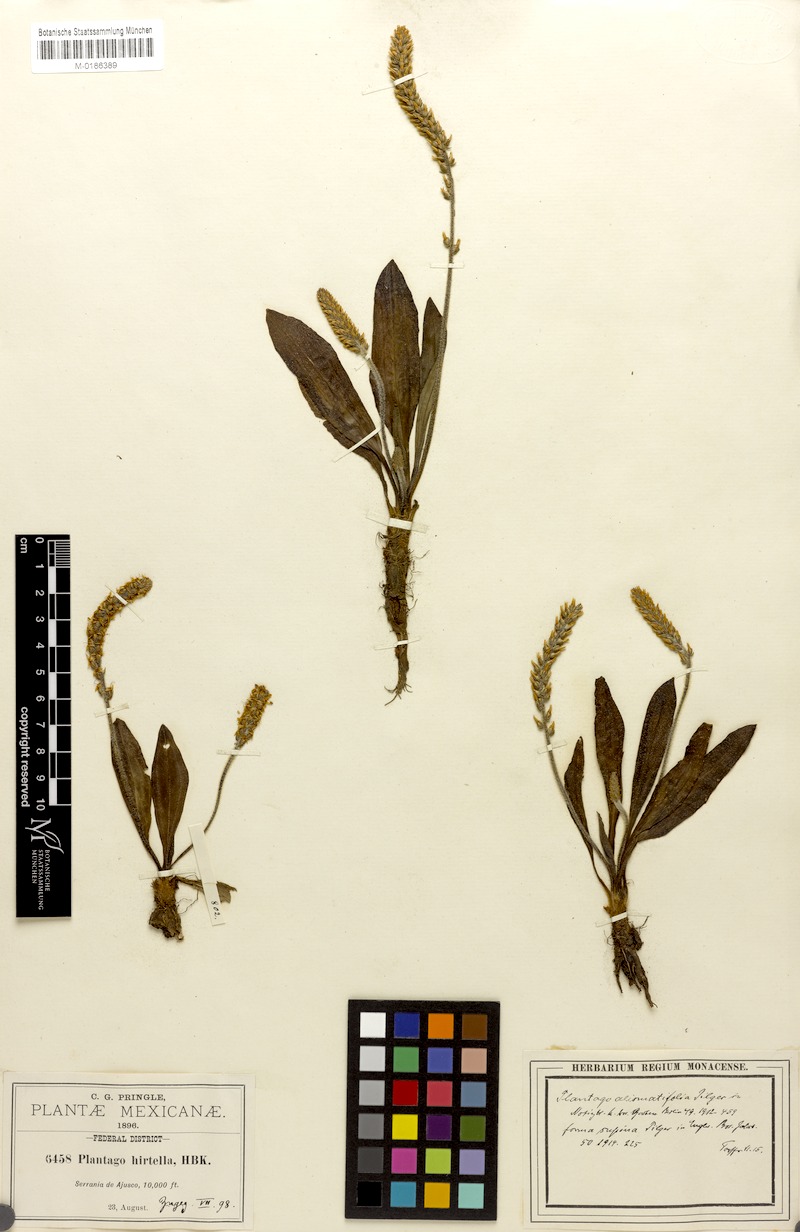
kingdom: Plantae
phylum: Tracheophyta
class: Magnoliopsida
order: Lamiales
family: Plantaginaceae
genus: Plantago
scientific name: Plantago alismatifolia
